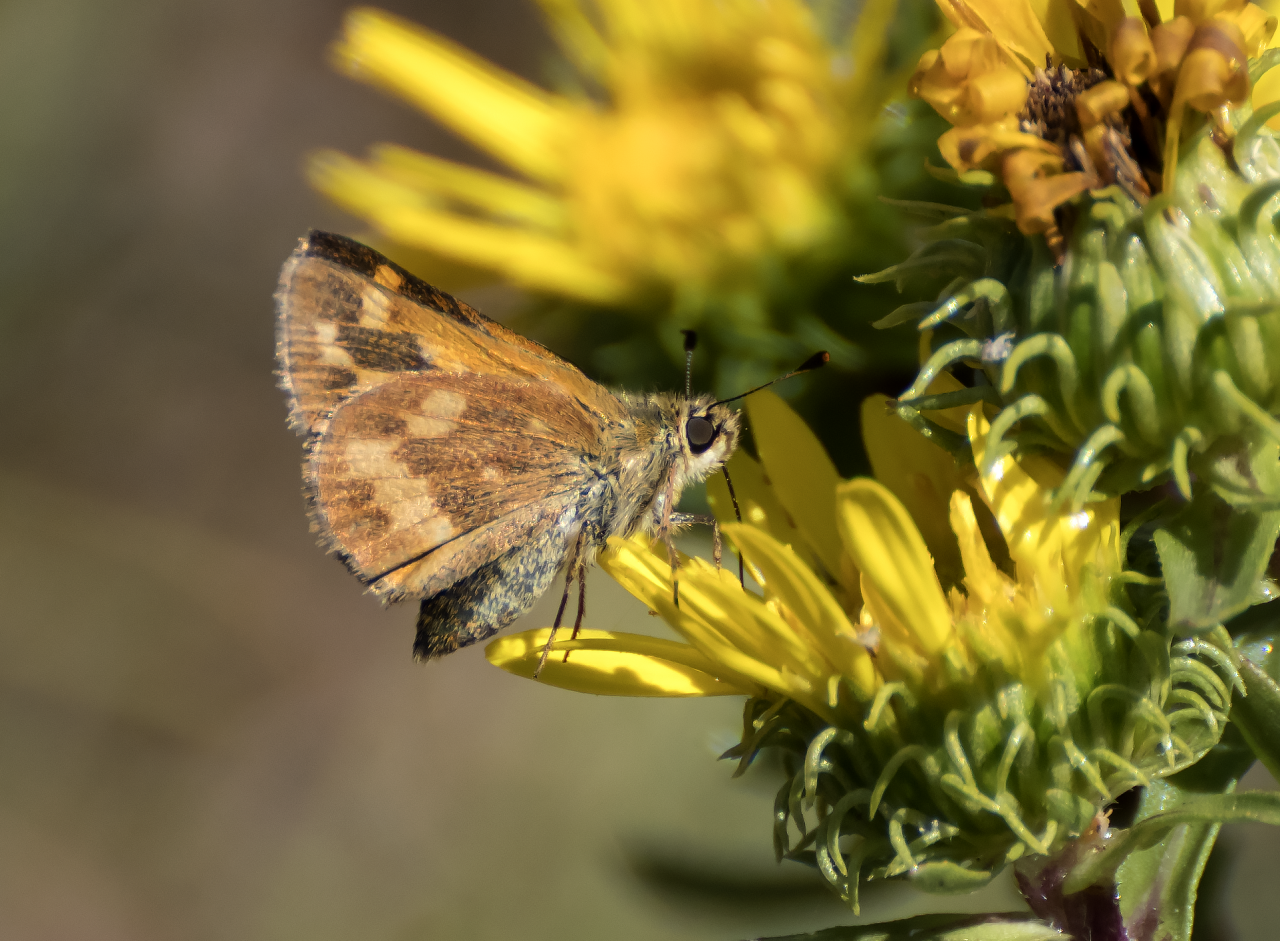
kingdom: Animalia
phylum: Arthropoda
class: Insecta
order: Lepidoptera
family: Hesperiidae
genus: Ochlodes
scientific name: Ochlodes sylvanoides
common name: Woodland Skipper
